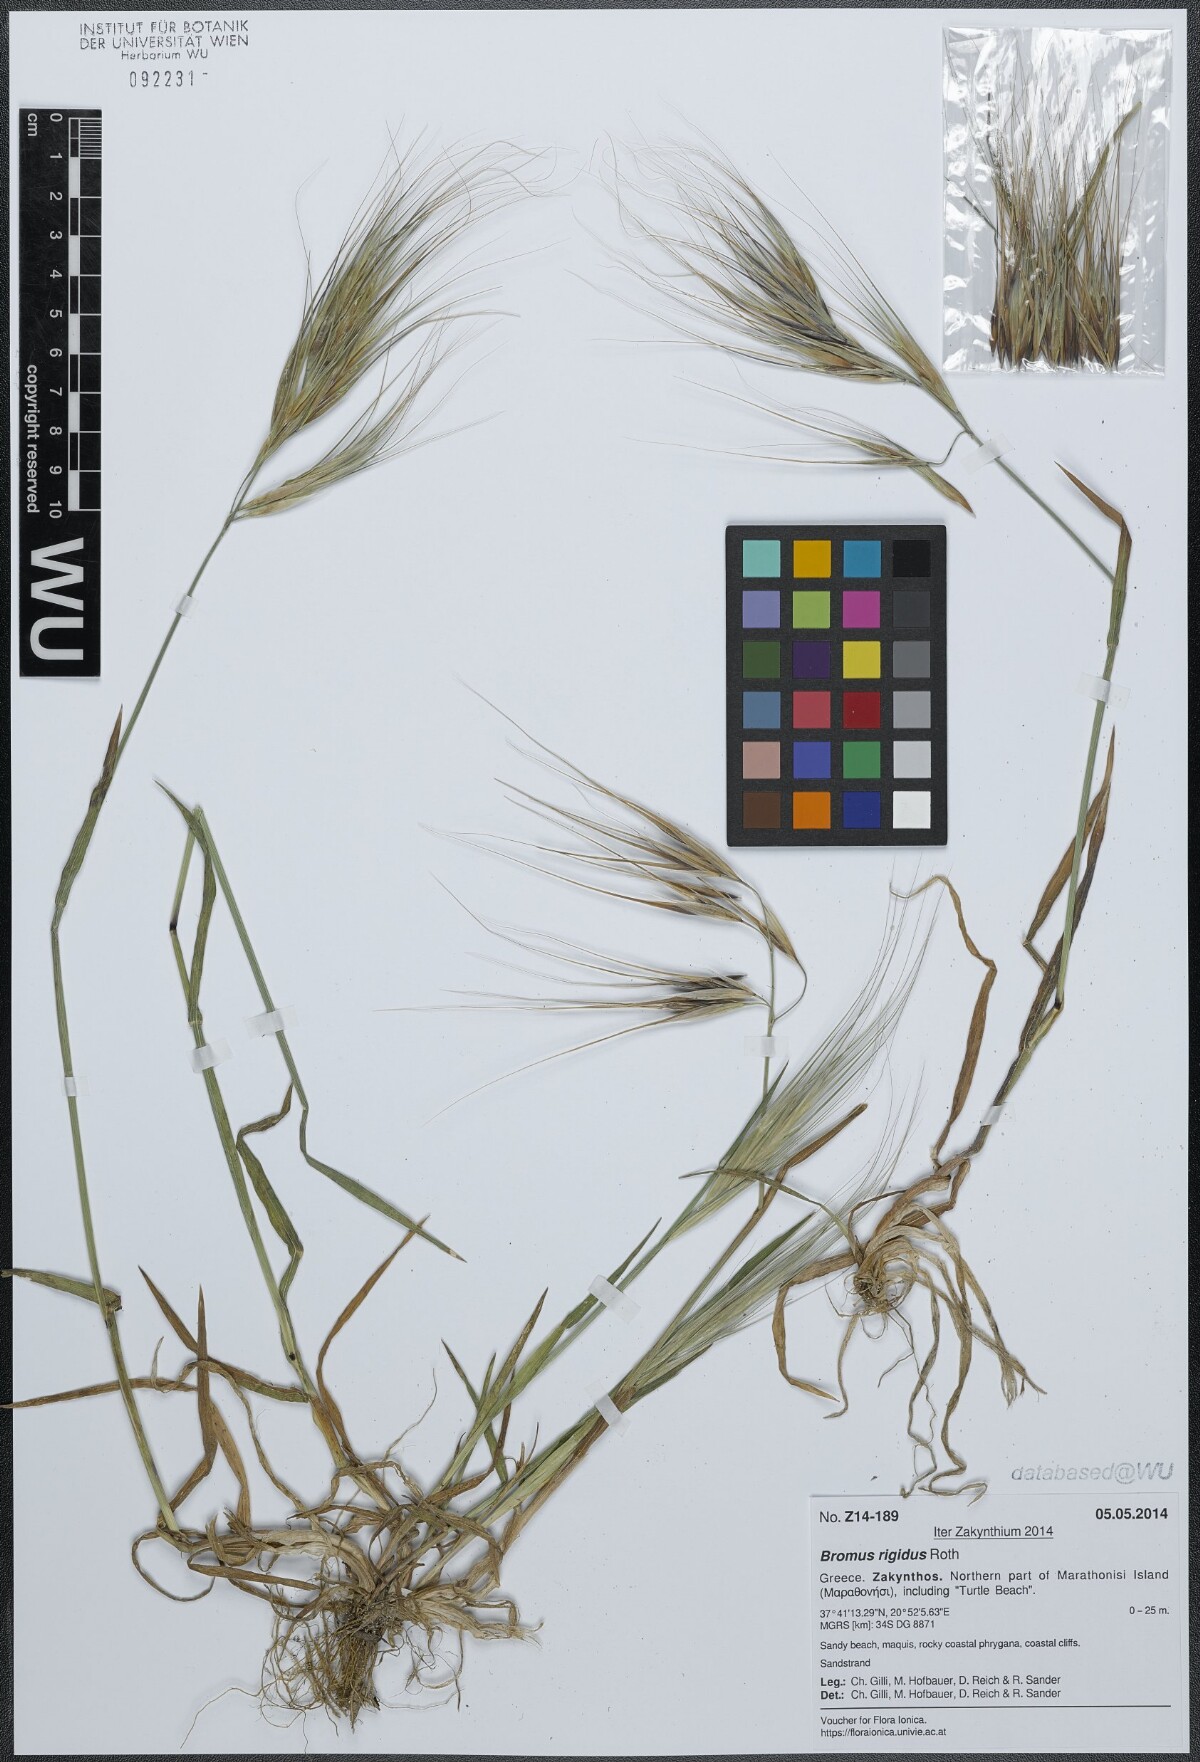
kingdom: Plantae
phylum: Tracheophyta
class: Liliopsida
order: Poales
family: Poaceae
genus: Bromus
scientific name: Bromus rigidus
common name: Ripgut brome
